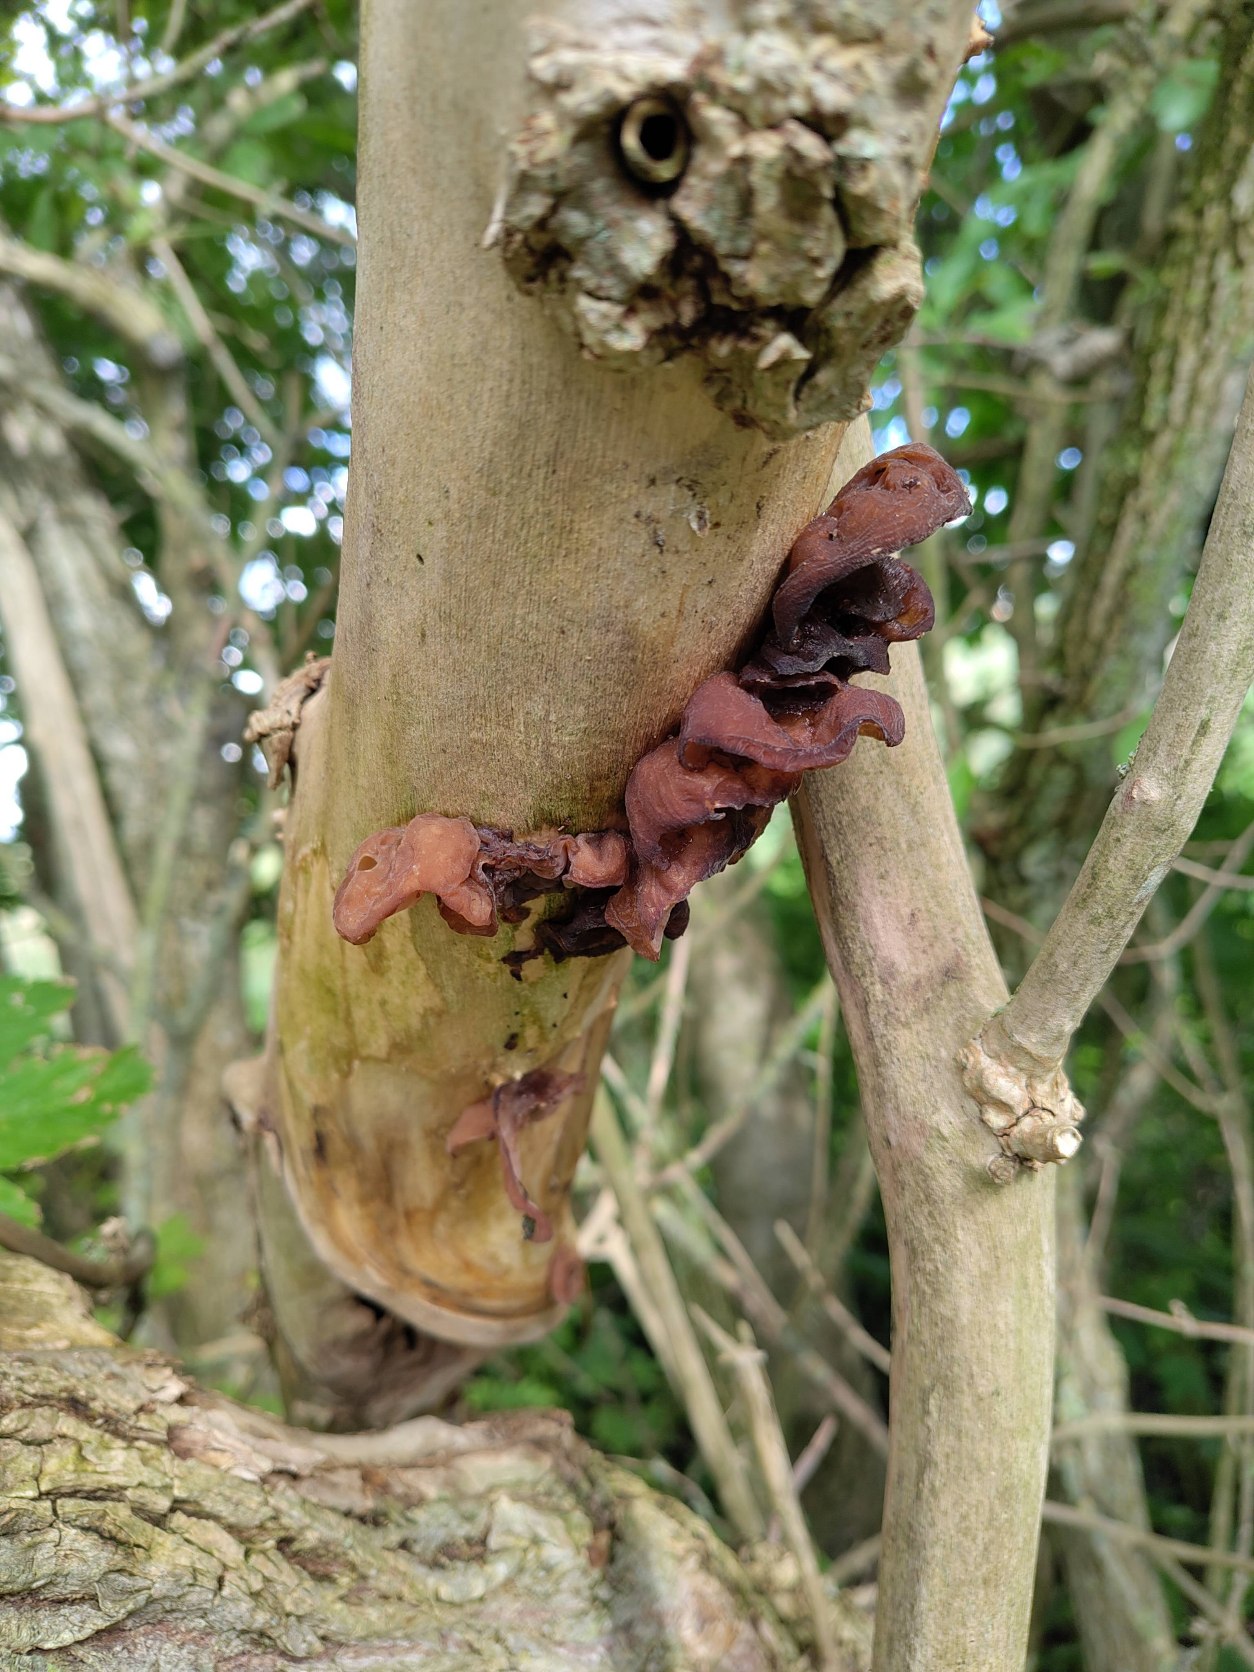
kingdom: Fungi
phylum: Basidiomycota
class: Agaricomycetes
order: Auriculariales
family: Auriculariaceae
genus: Auricularia
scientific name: Auricularia auricula-judae
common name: Almindelig judasøre
